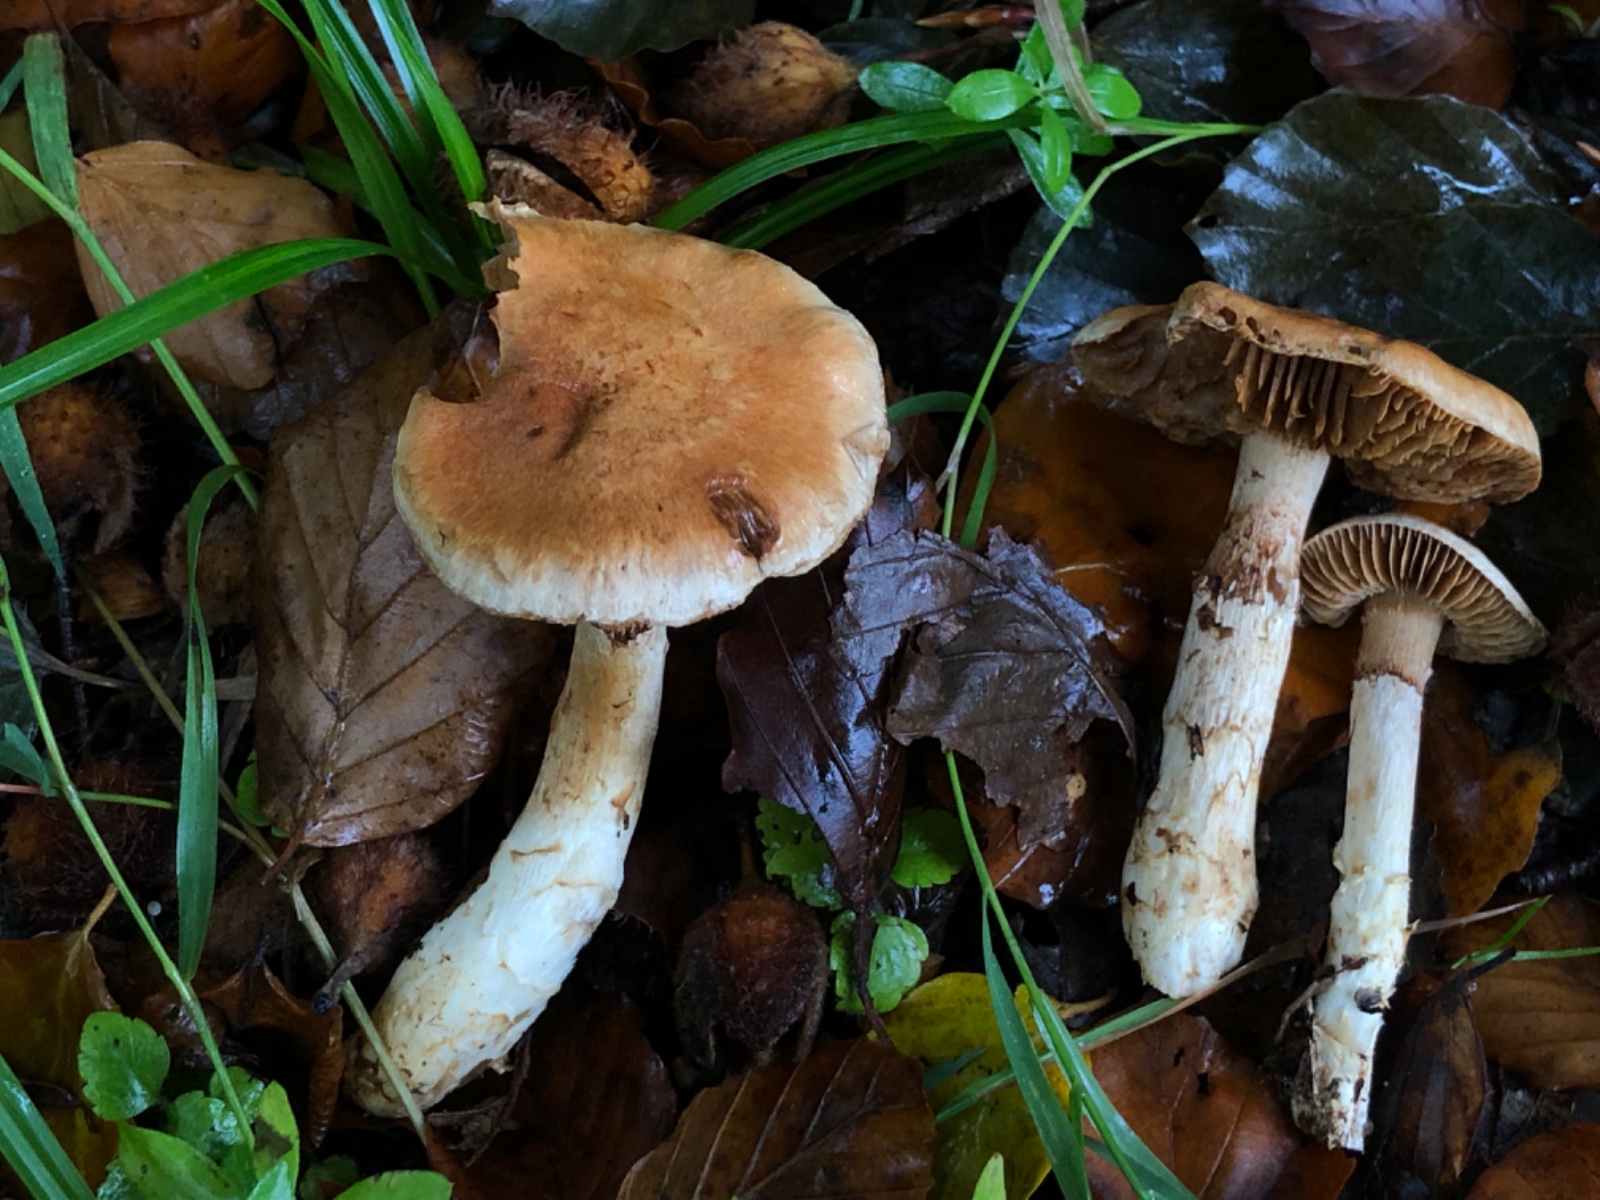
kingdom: Fungi
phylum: Basidiomycota
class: Agaricomycetes
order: Agaricales
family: Cortinariaceae
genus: Phlegmacium
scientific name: Phlegmacium vulpinum
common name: ringbæltet slørhat
